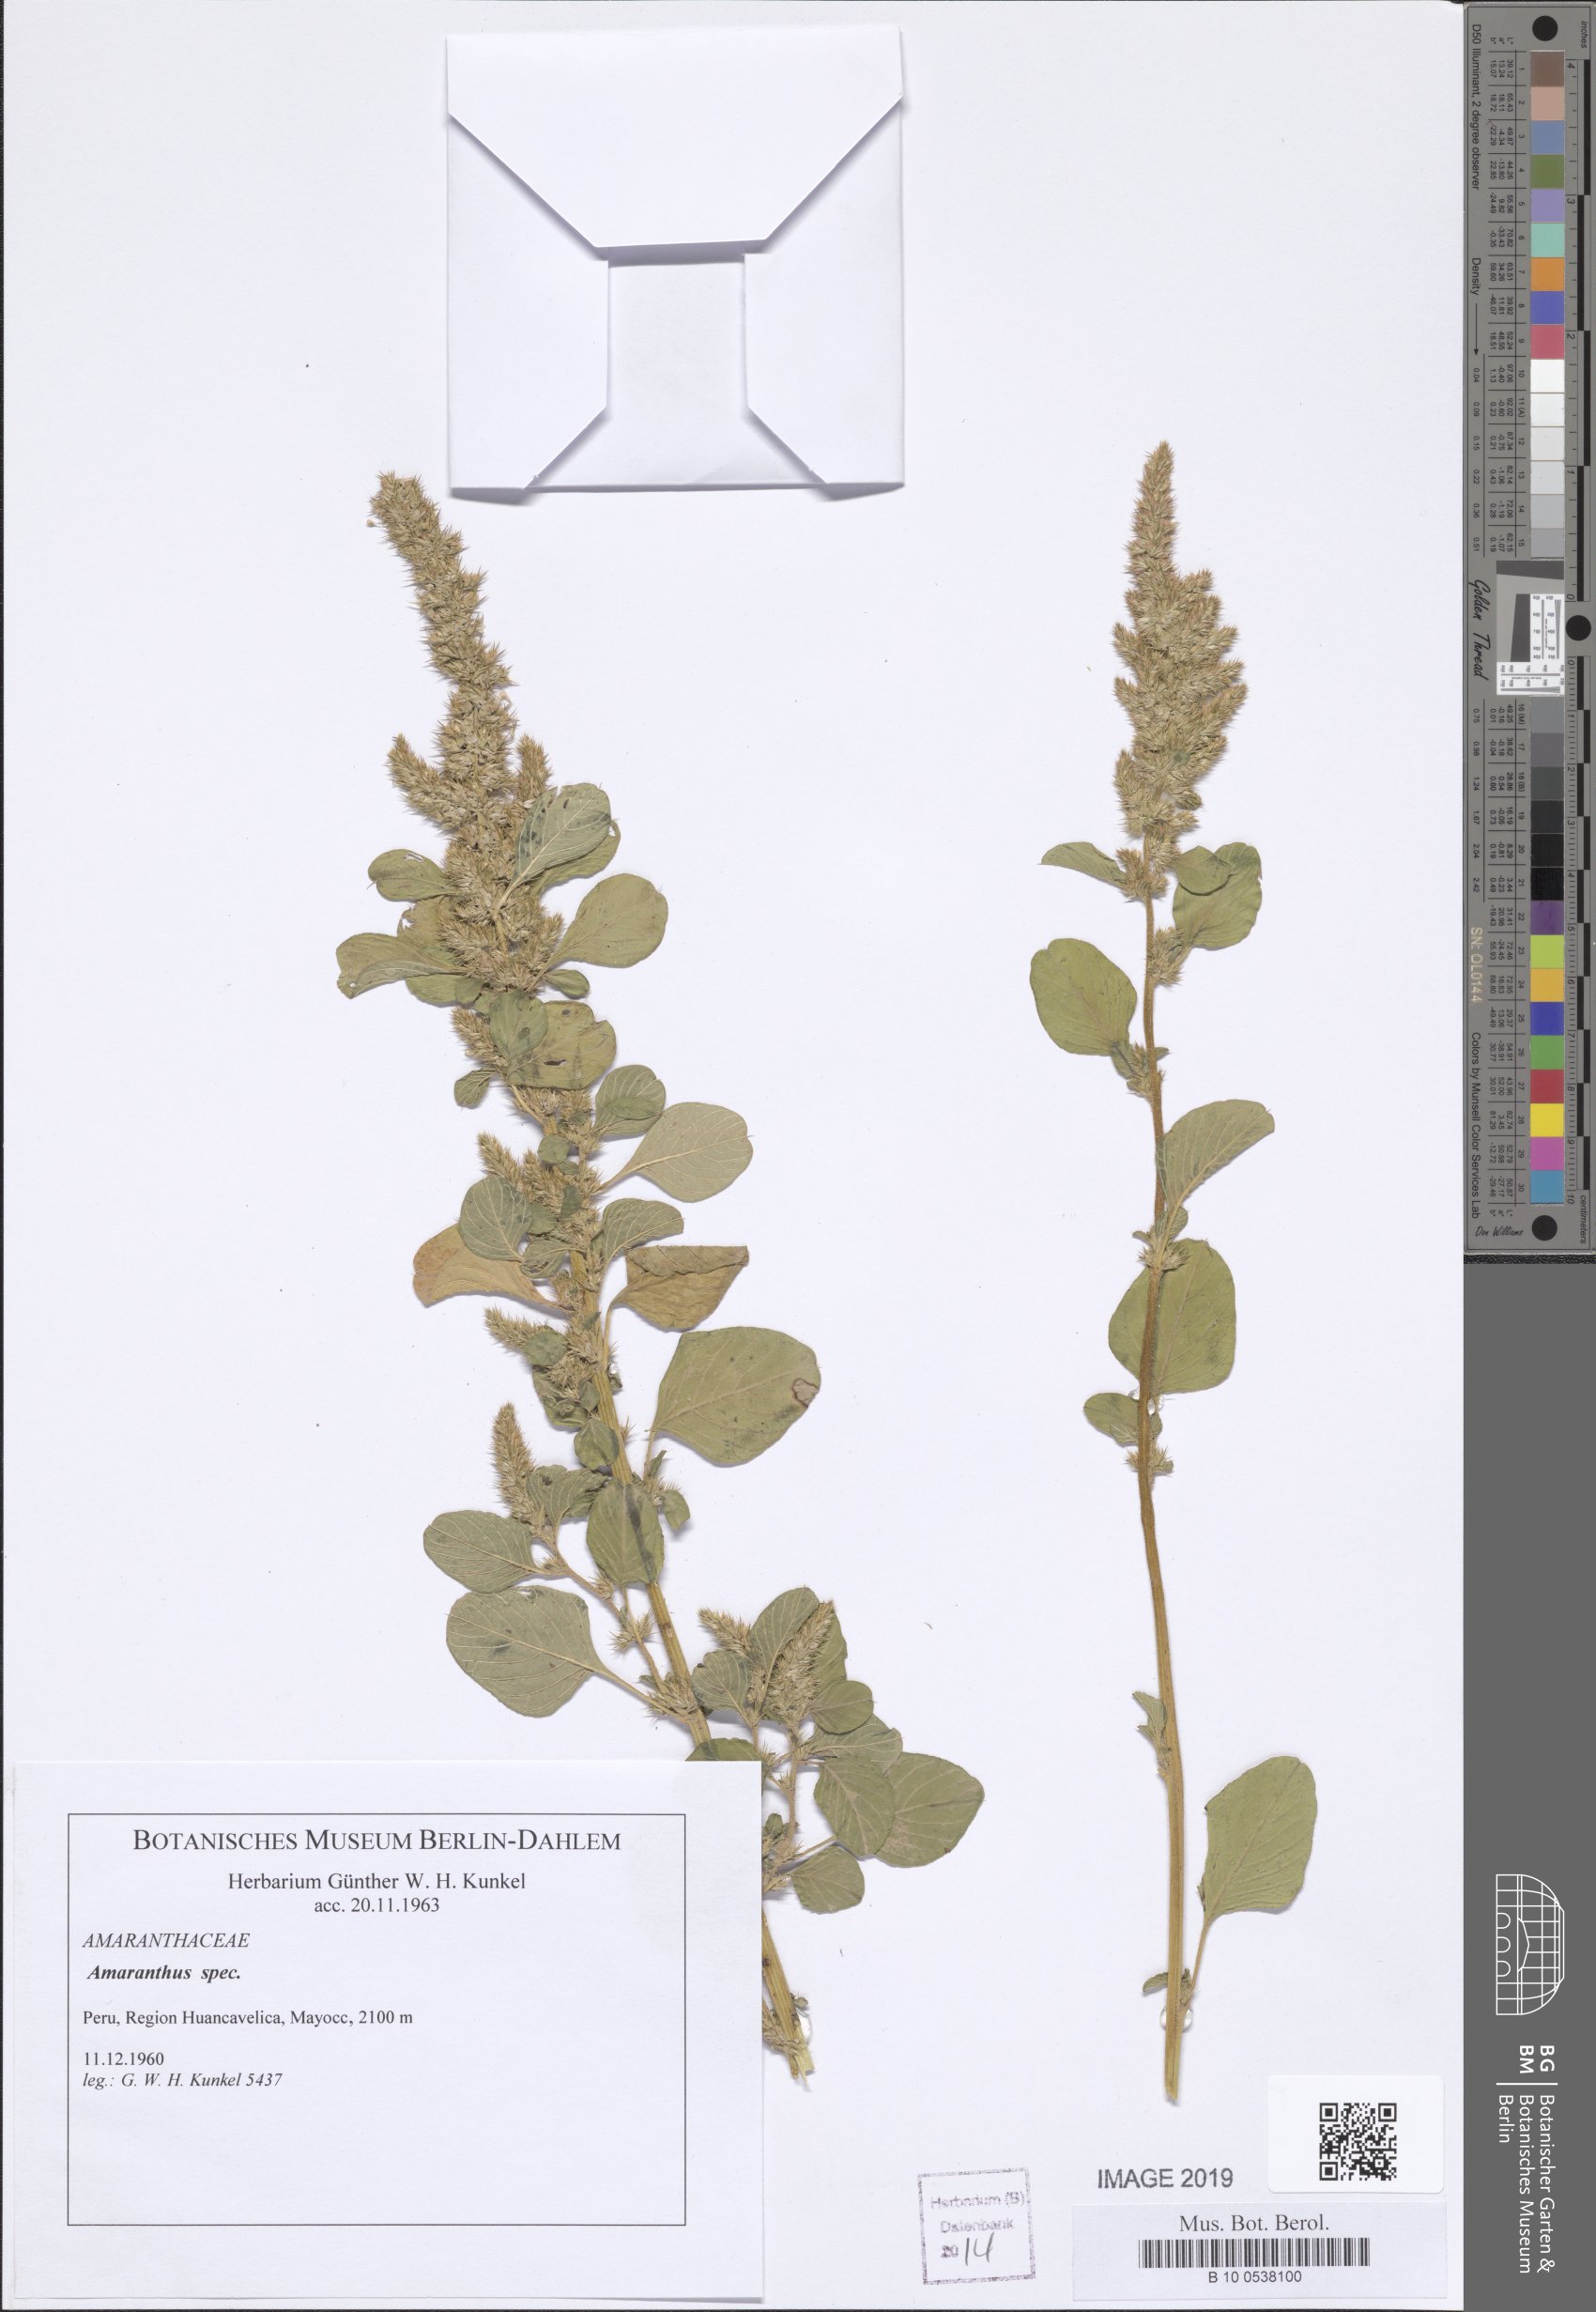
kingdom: Plantae
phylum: Tracheophyta
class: Magnoliopsida
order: Caryophyllales
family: Amaranthaceae
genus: Amaranthus
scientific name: Amaranthus
